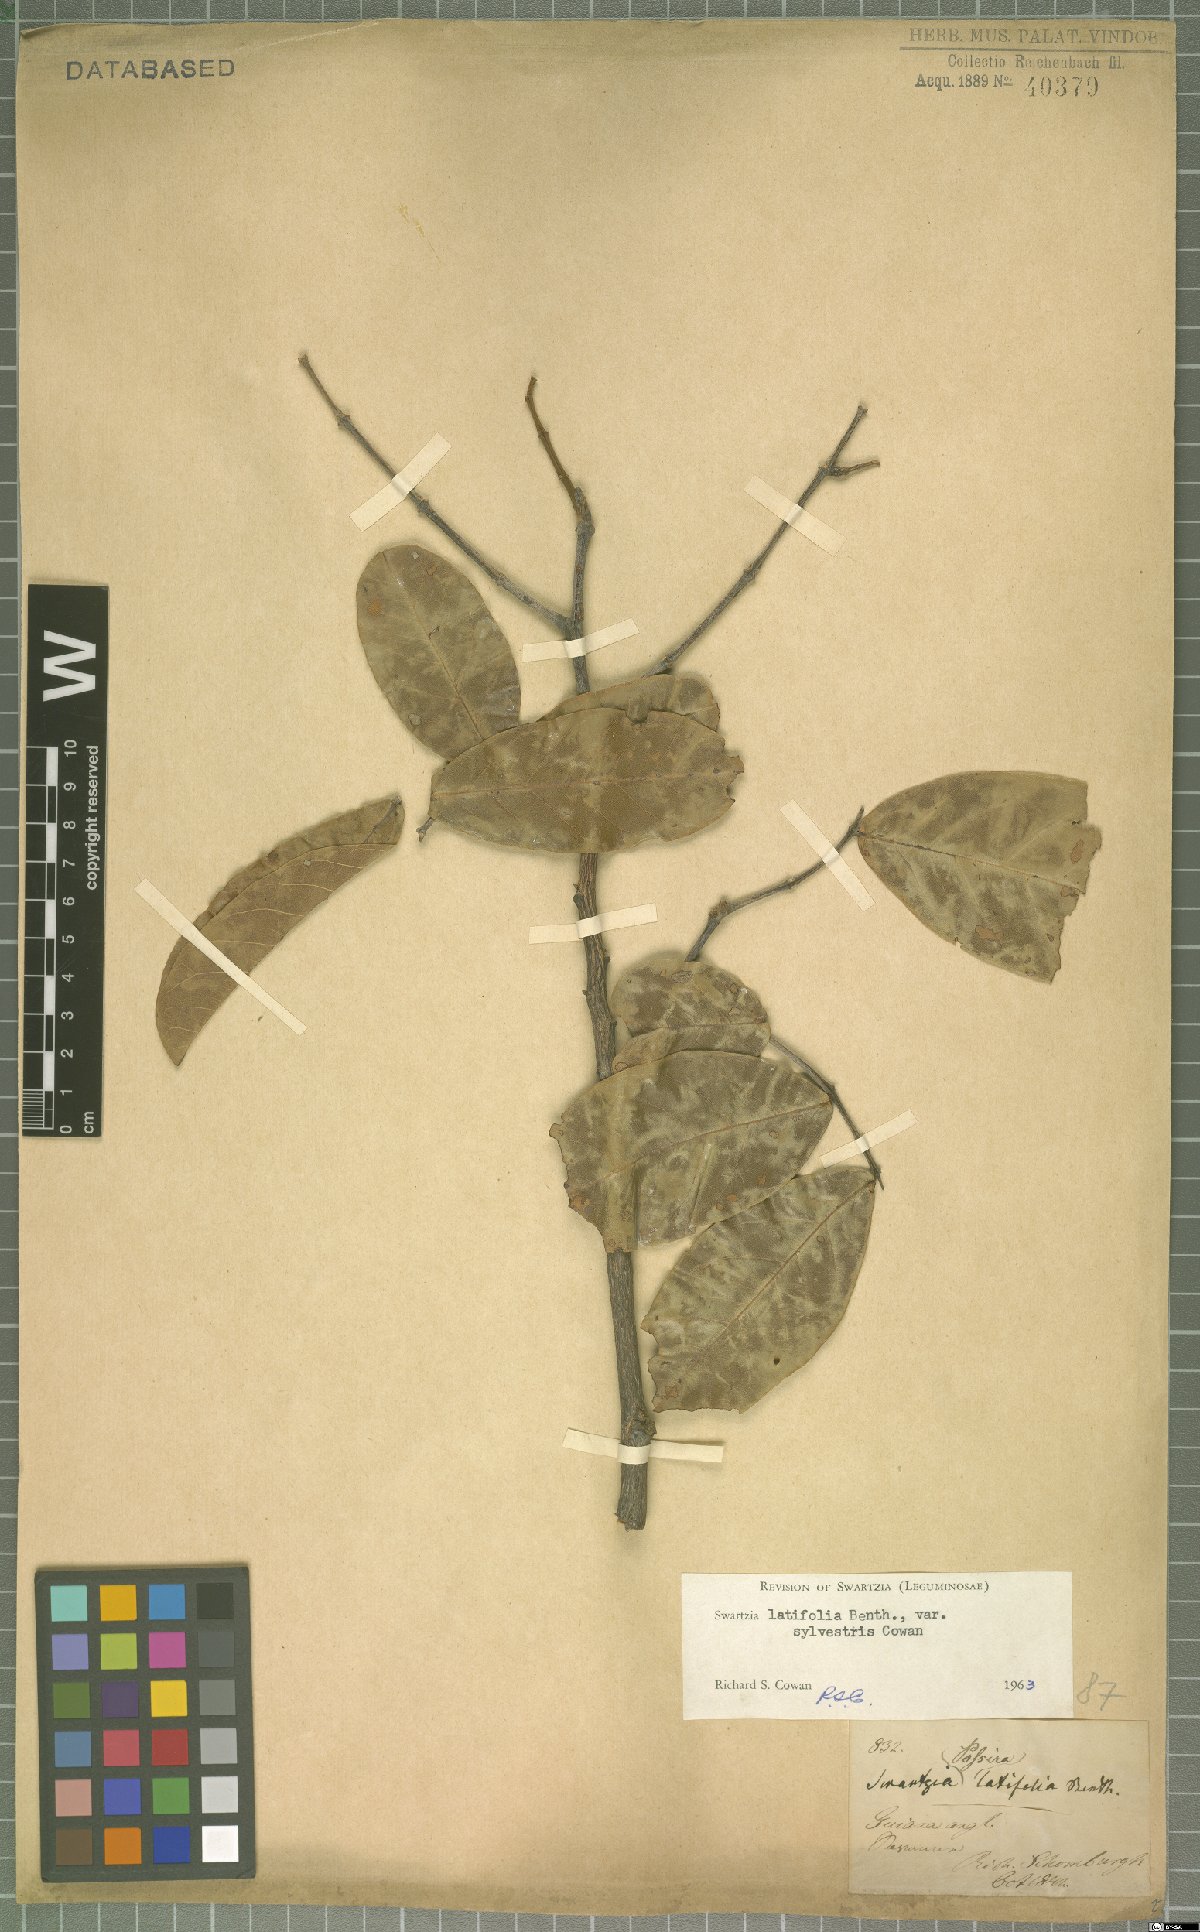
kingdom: Plantae
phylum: Tracheophyta
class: Magnoliopsida
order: Fabales
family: Fabaceae
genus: Swartzia
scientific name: Swartzia latifolia
